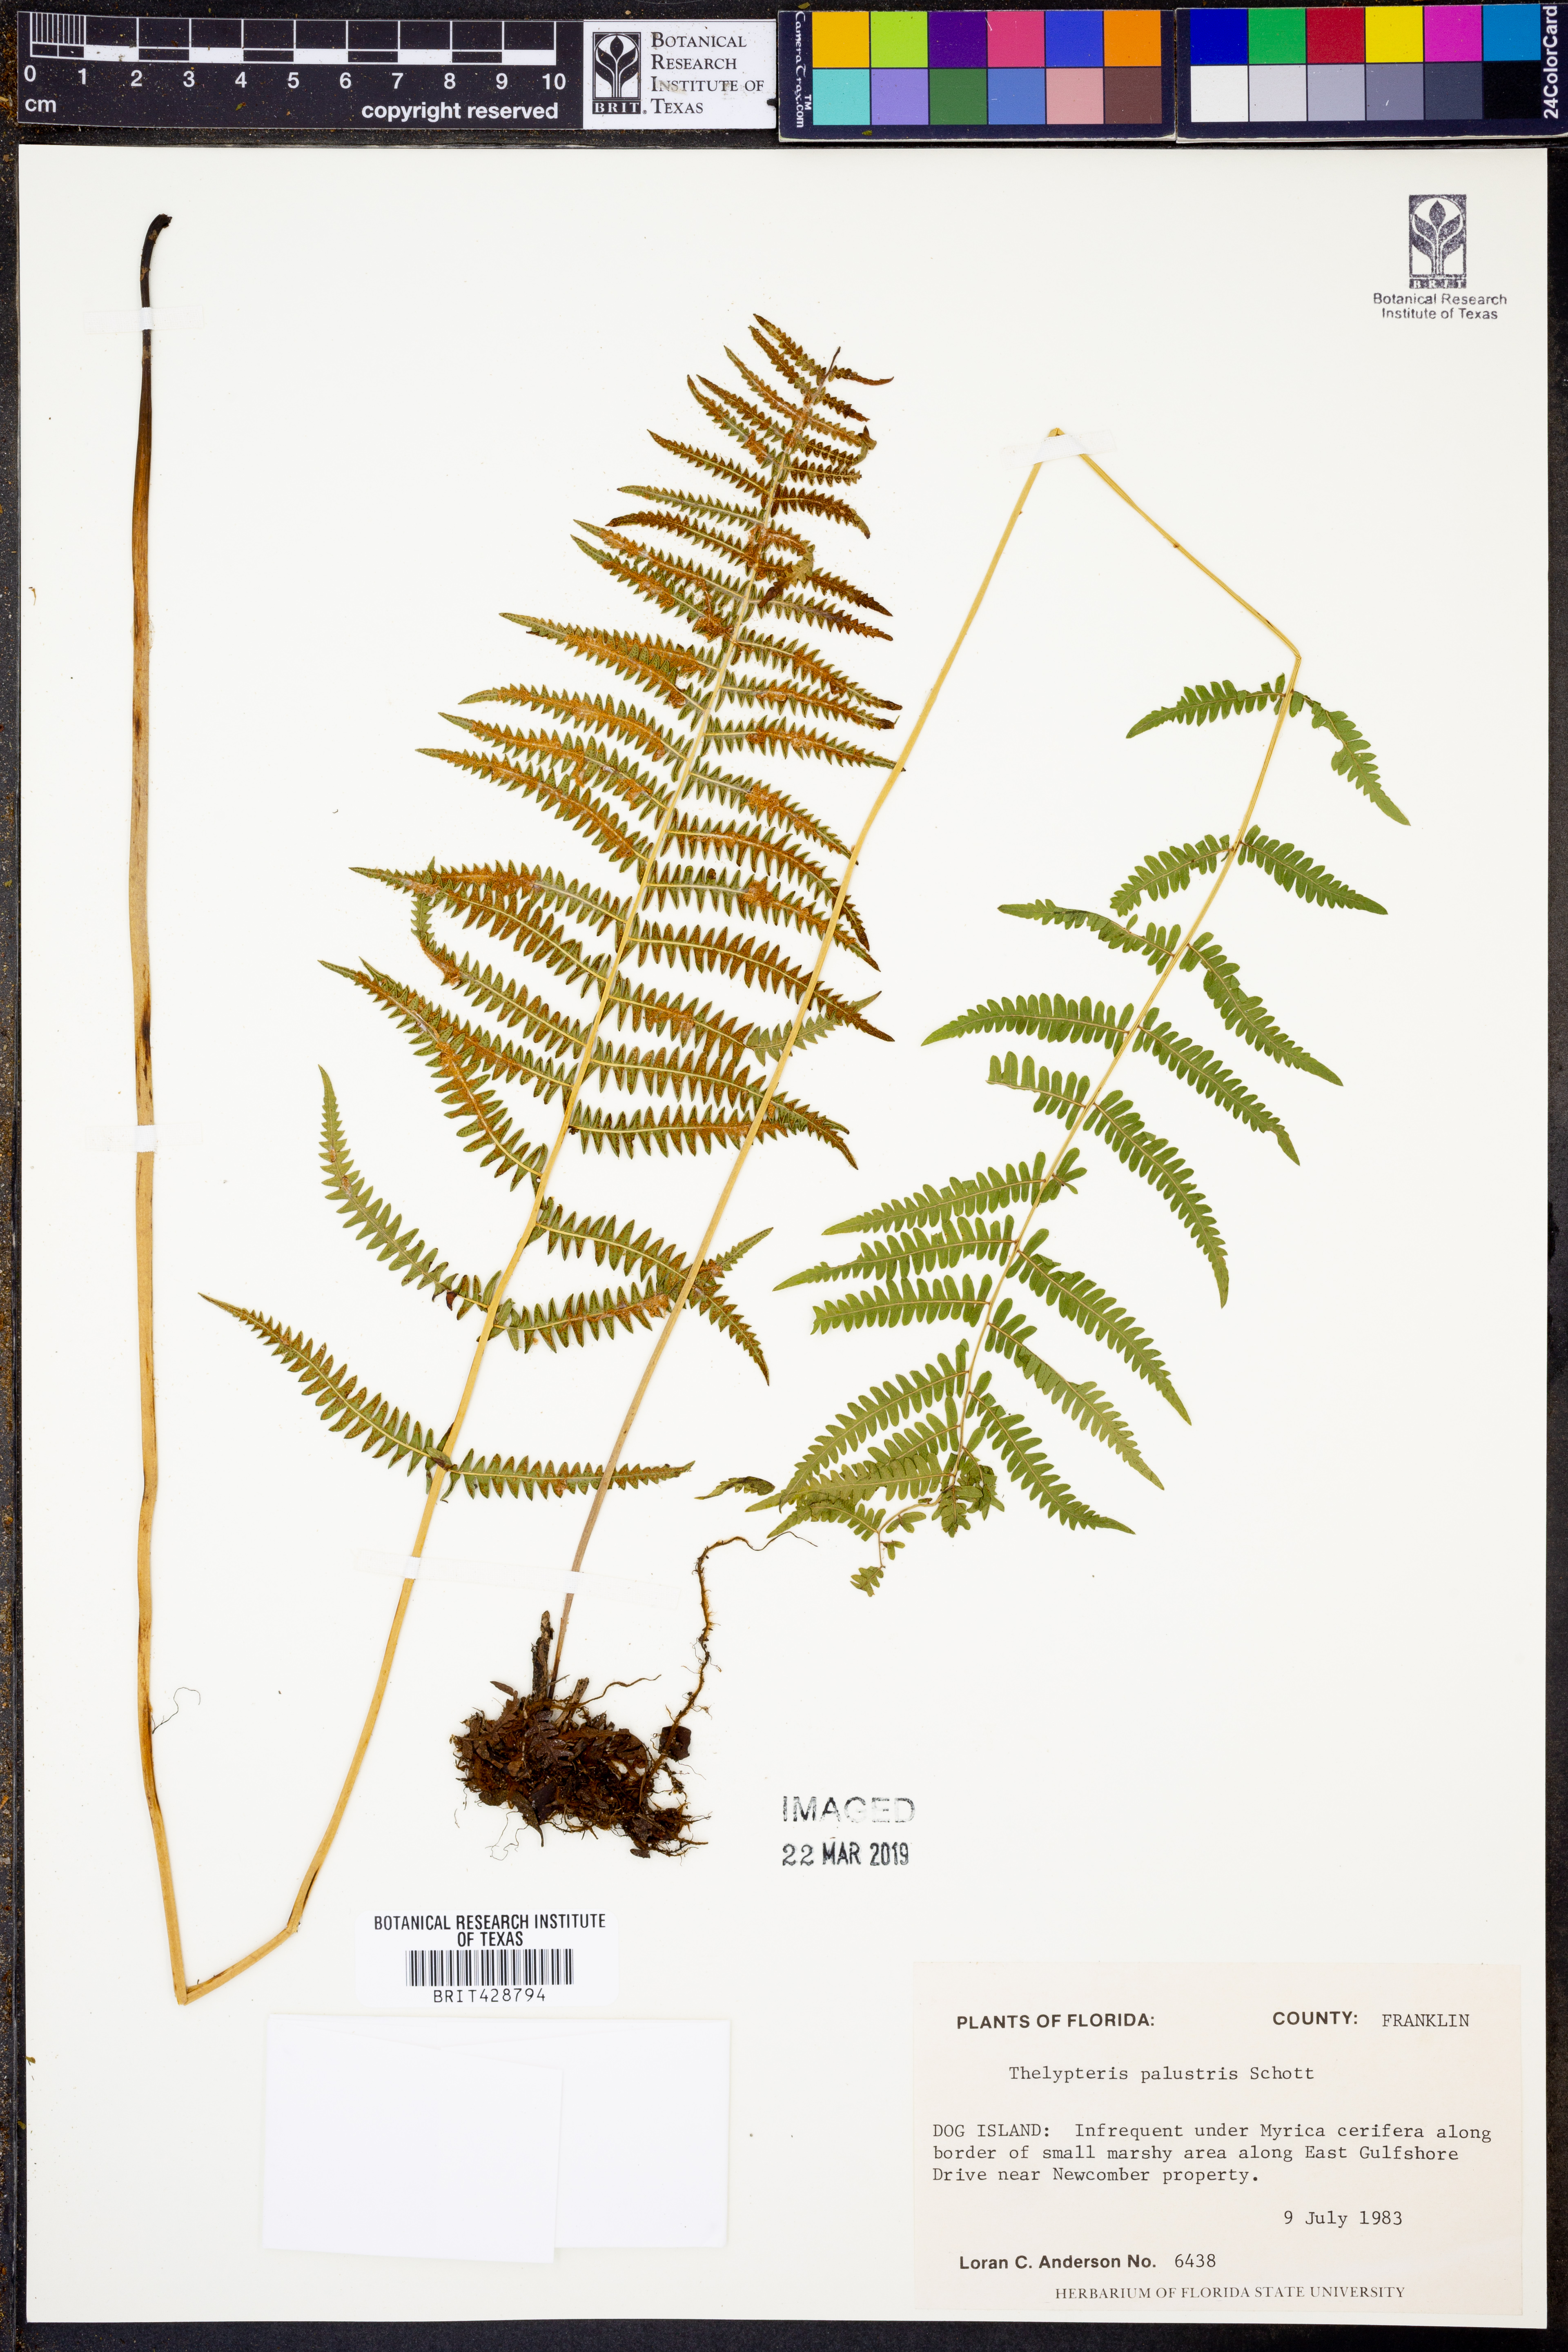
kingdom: Plantae
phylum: Tracheophyta
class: Polypodiopsida
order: Polypodiales
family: Thelypteridaceae
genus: Thelypteris
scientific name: Thelypteris palustris
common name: Marsh fern
